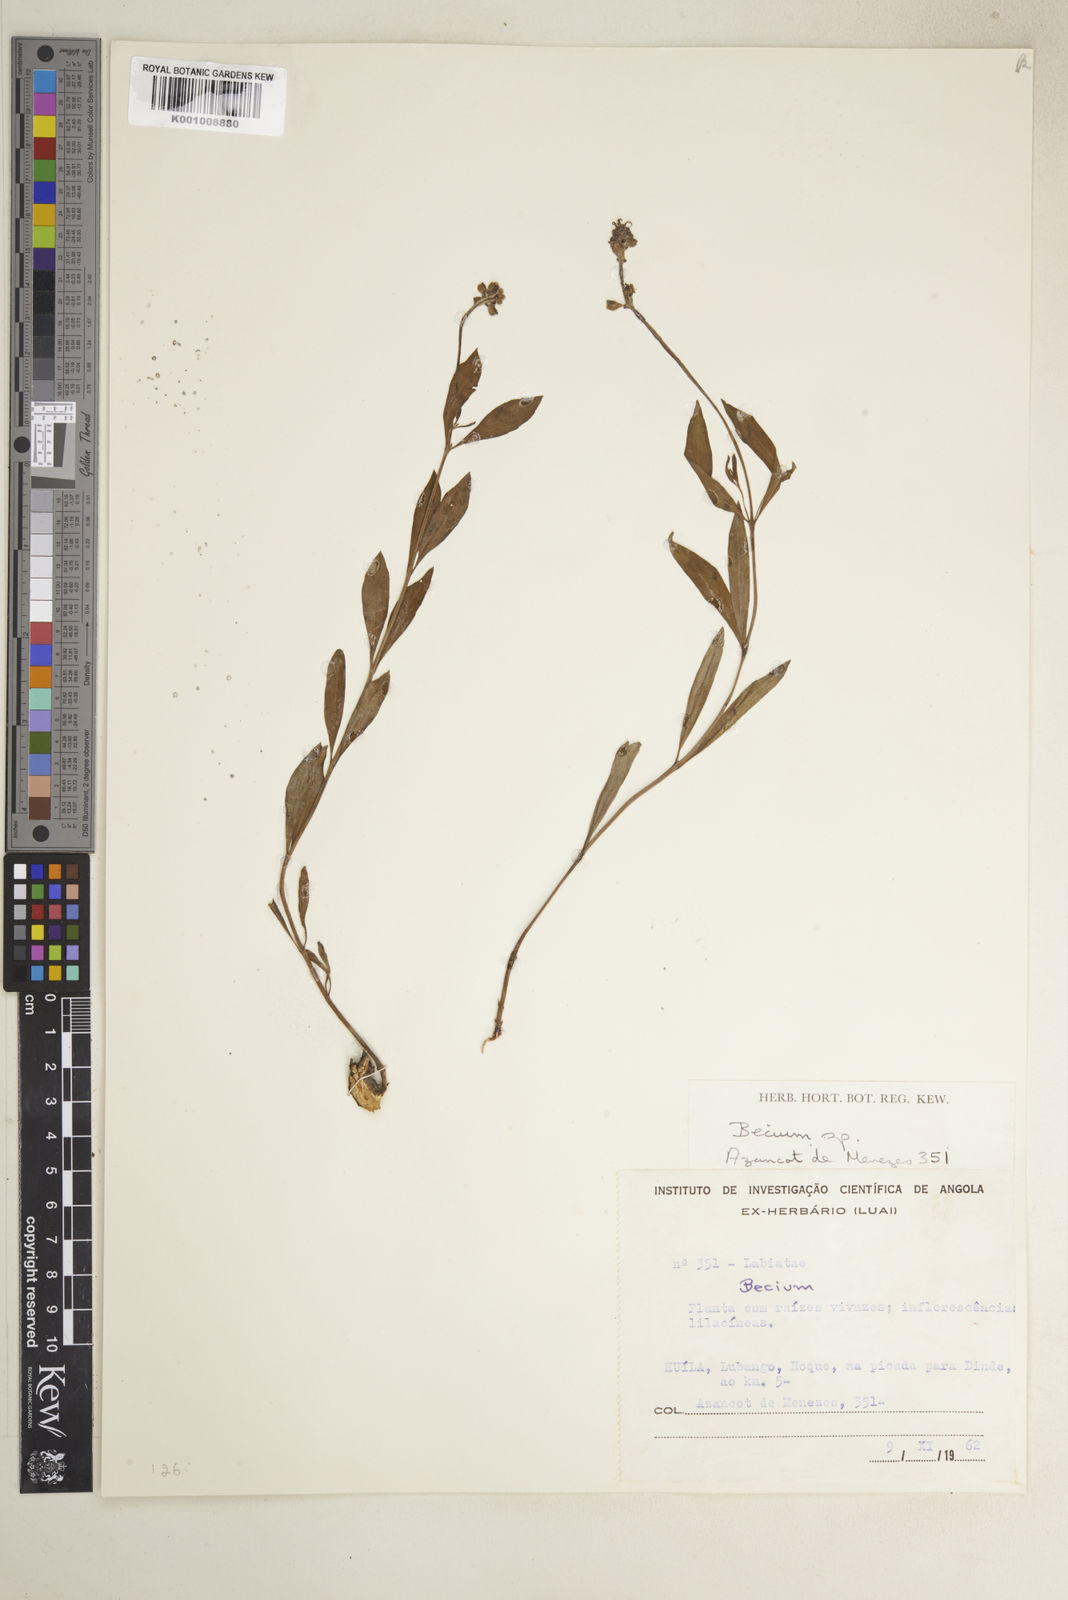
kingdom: Plantae
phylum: Tracheophyta
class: Magnoliopsida
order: Lamiales
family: Lamiaceae
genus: Ocimum
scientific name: Ocimum obovatum
